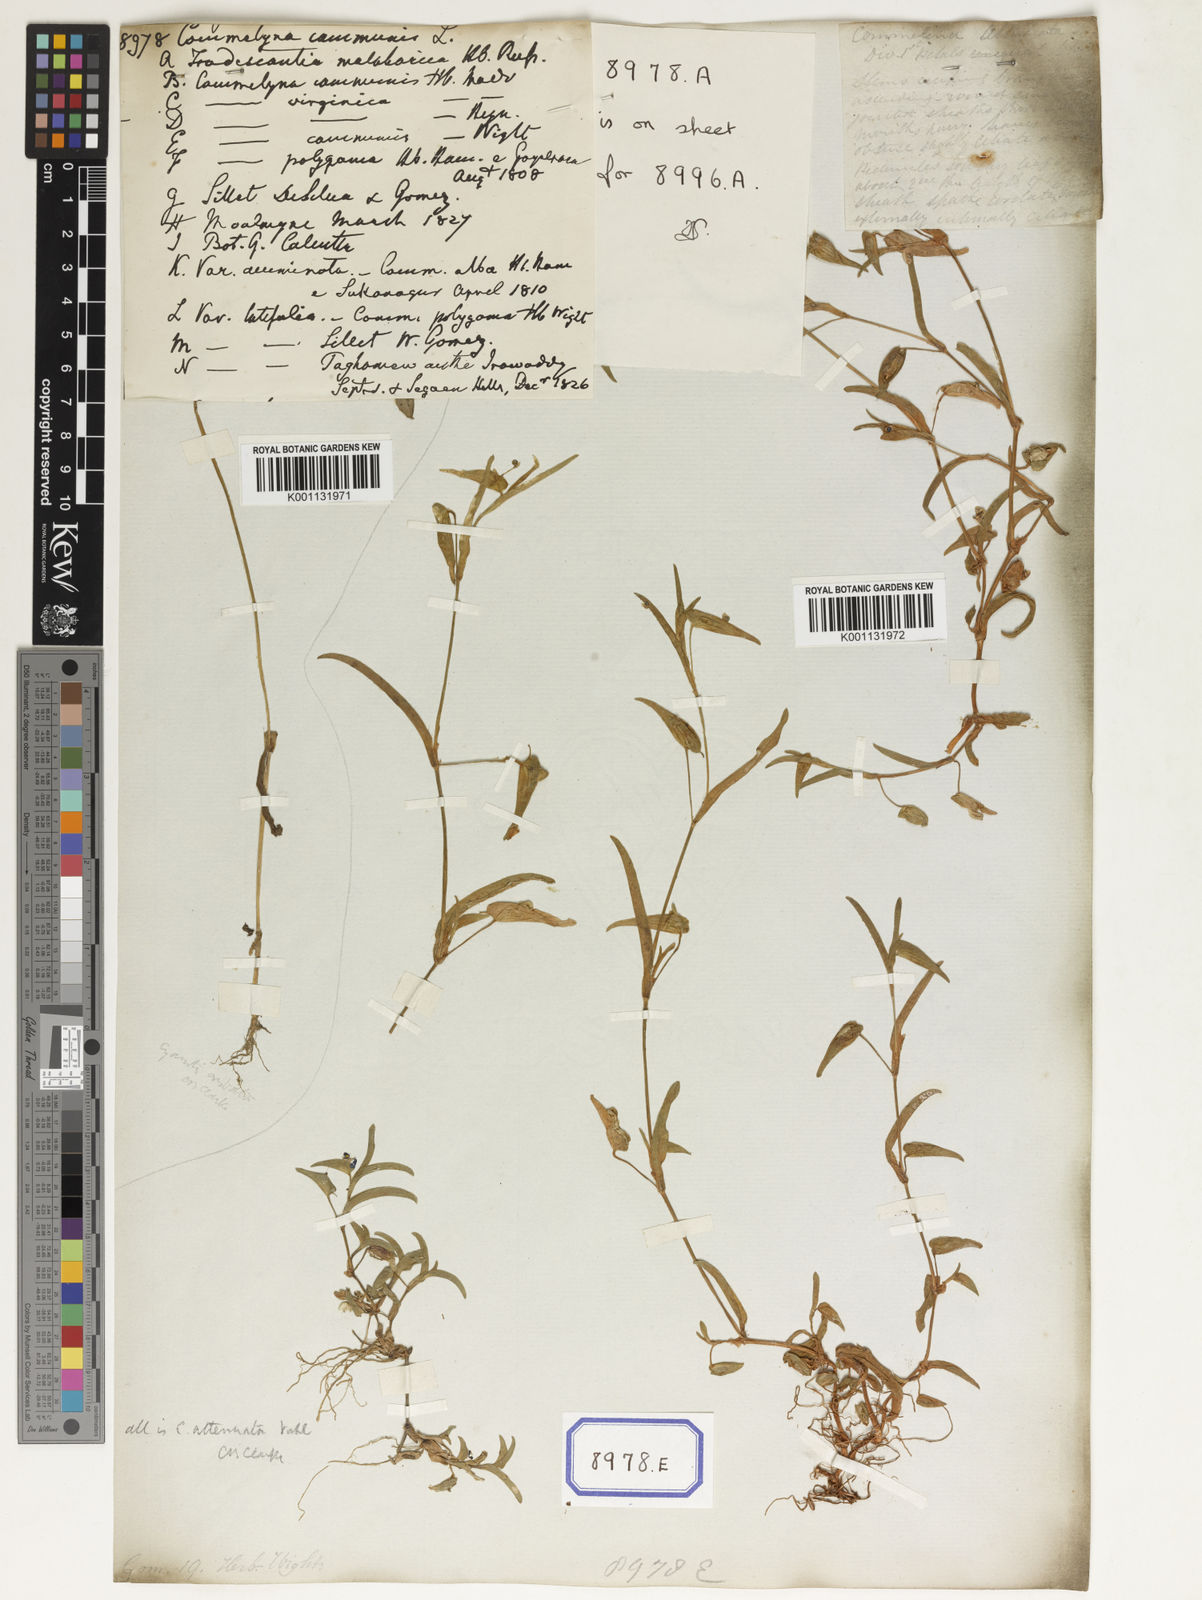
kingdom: Plantae
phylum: Tracheophyta
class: Liliopsida
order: Commelinales
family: Commelinaceae
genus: Commelina
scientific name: Commelina communis
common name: Asiatic dayflower
